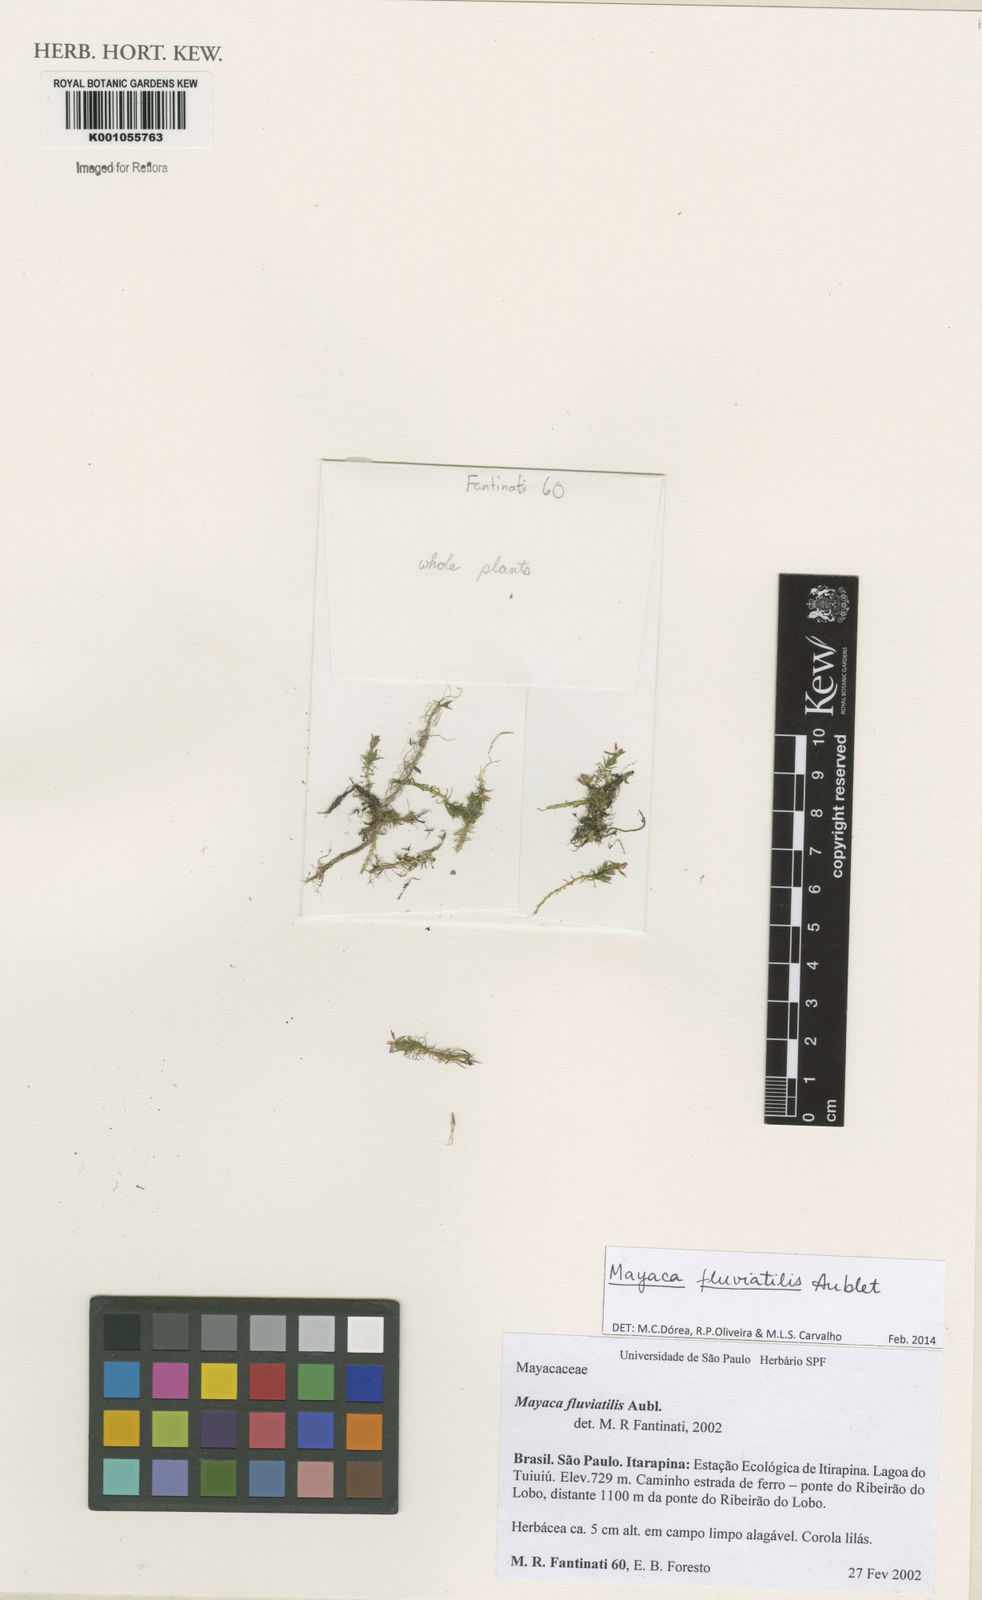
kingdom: Plantae
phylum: Tracheophyta
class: Liliopsida
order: Poales
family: Mayacaceae
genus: Mayaca
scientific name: Mayaca
